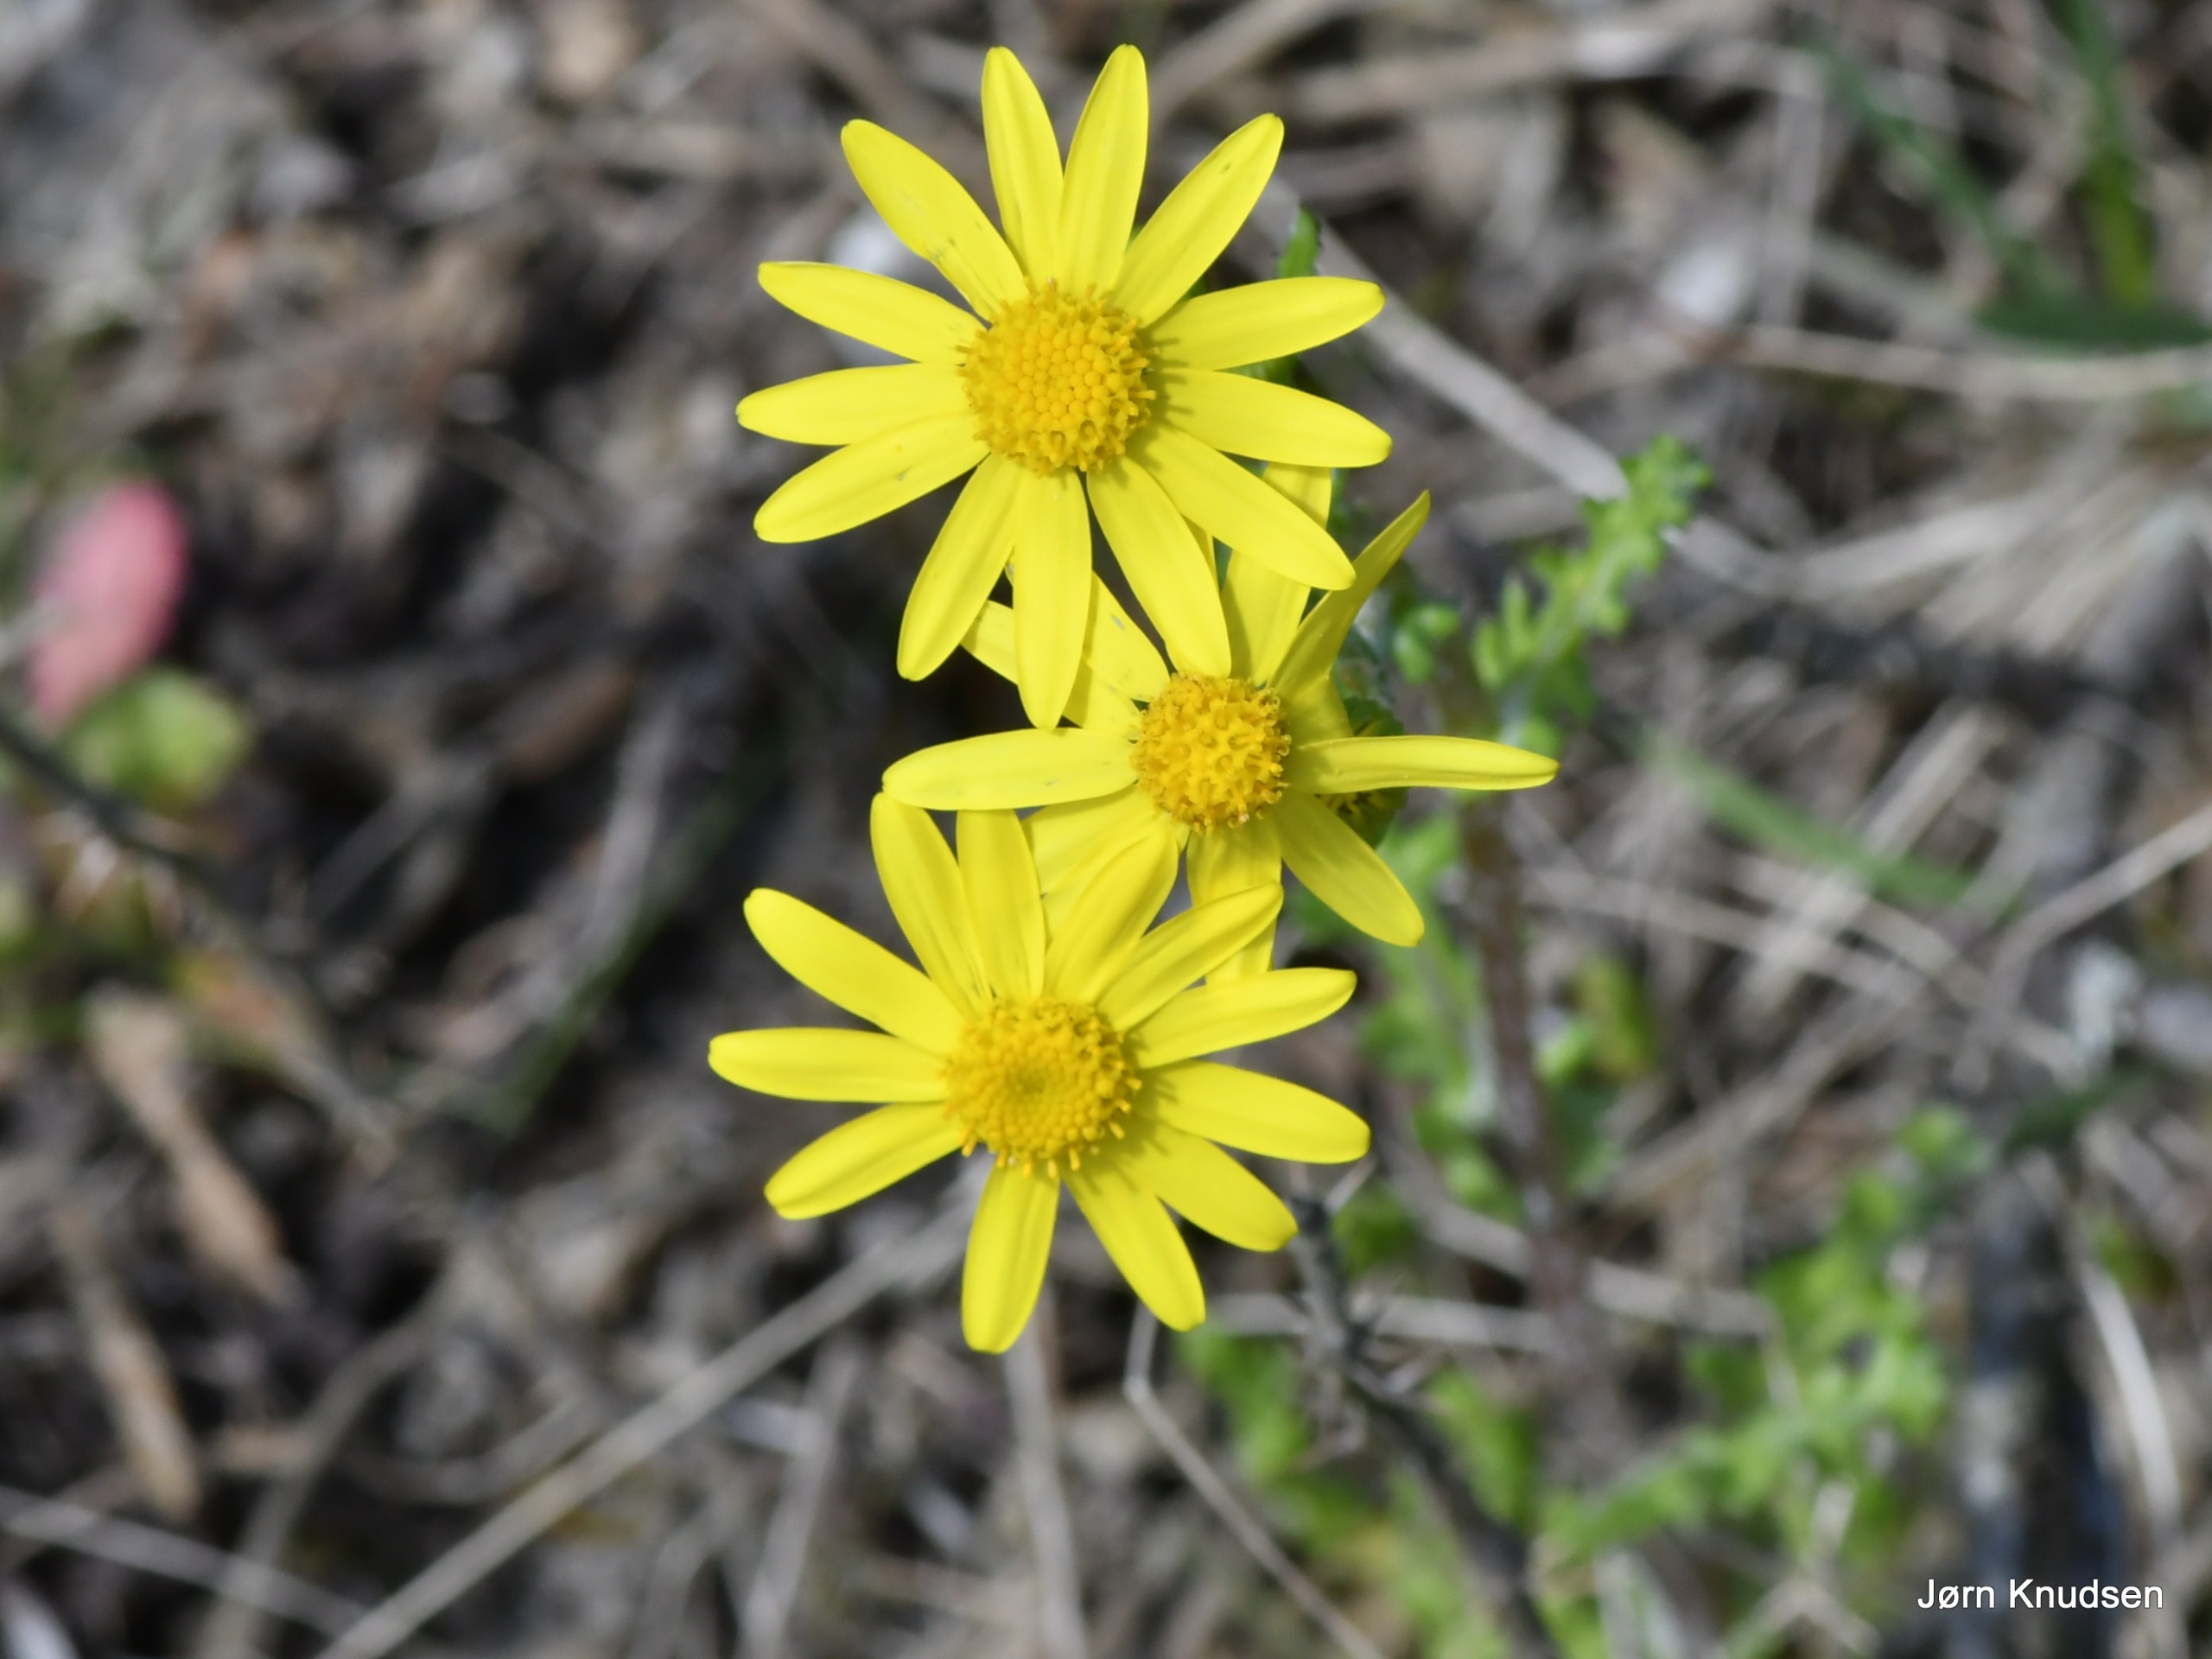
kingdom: Plantae
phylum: Tracheophyta
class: Magnoliopsida
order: Asterales
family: Asteraceae
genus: Senecio
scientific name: Senecio leucanthemifolius
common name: Vår-brandbæger
